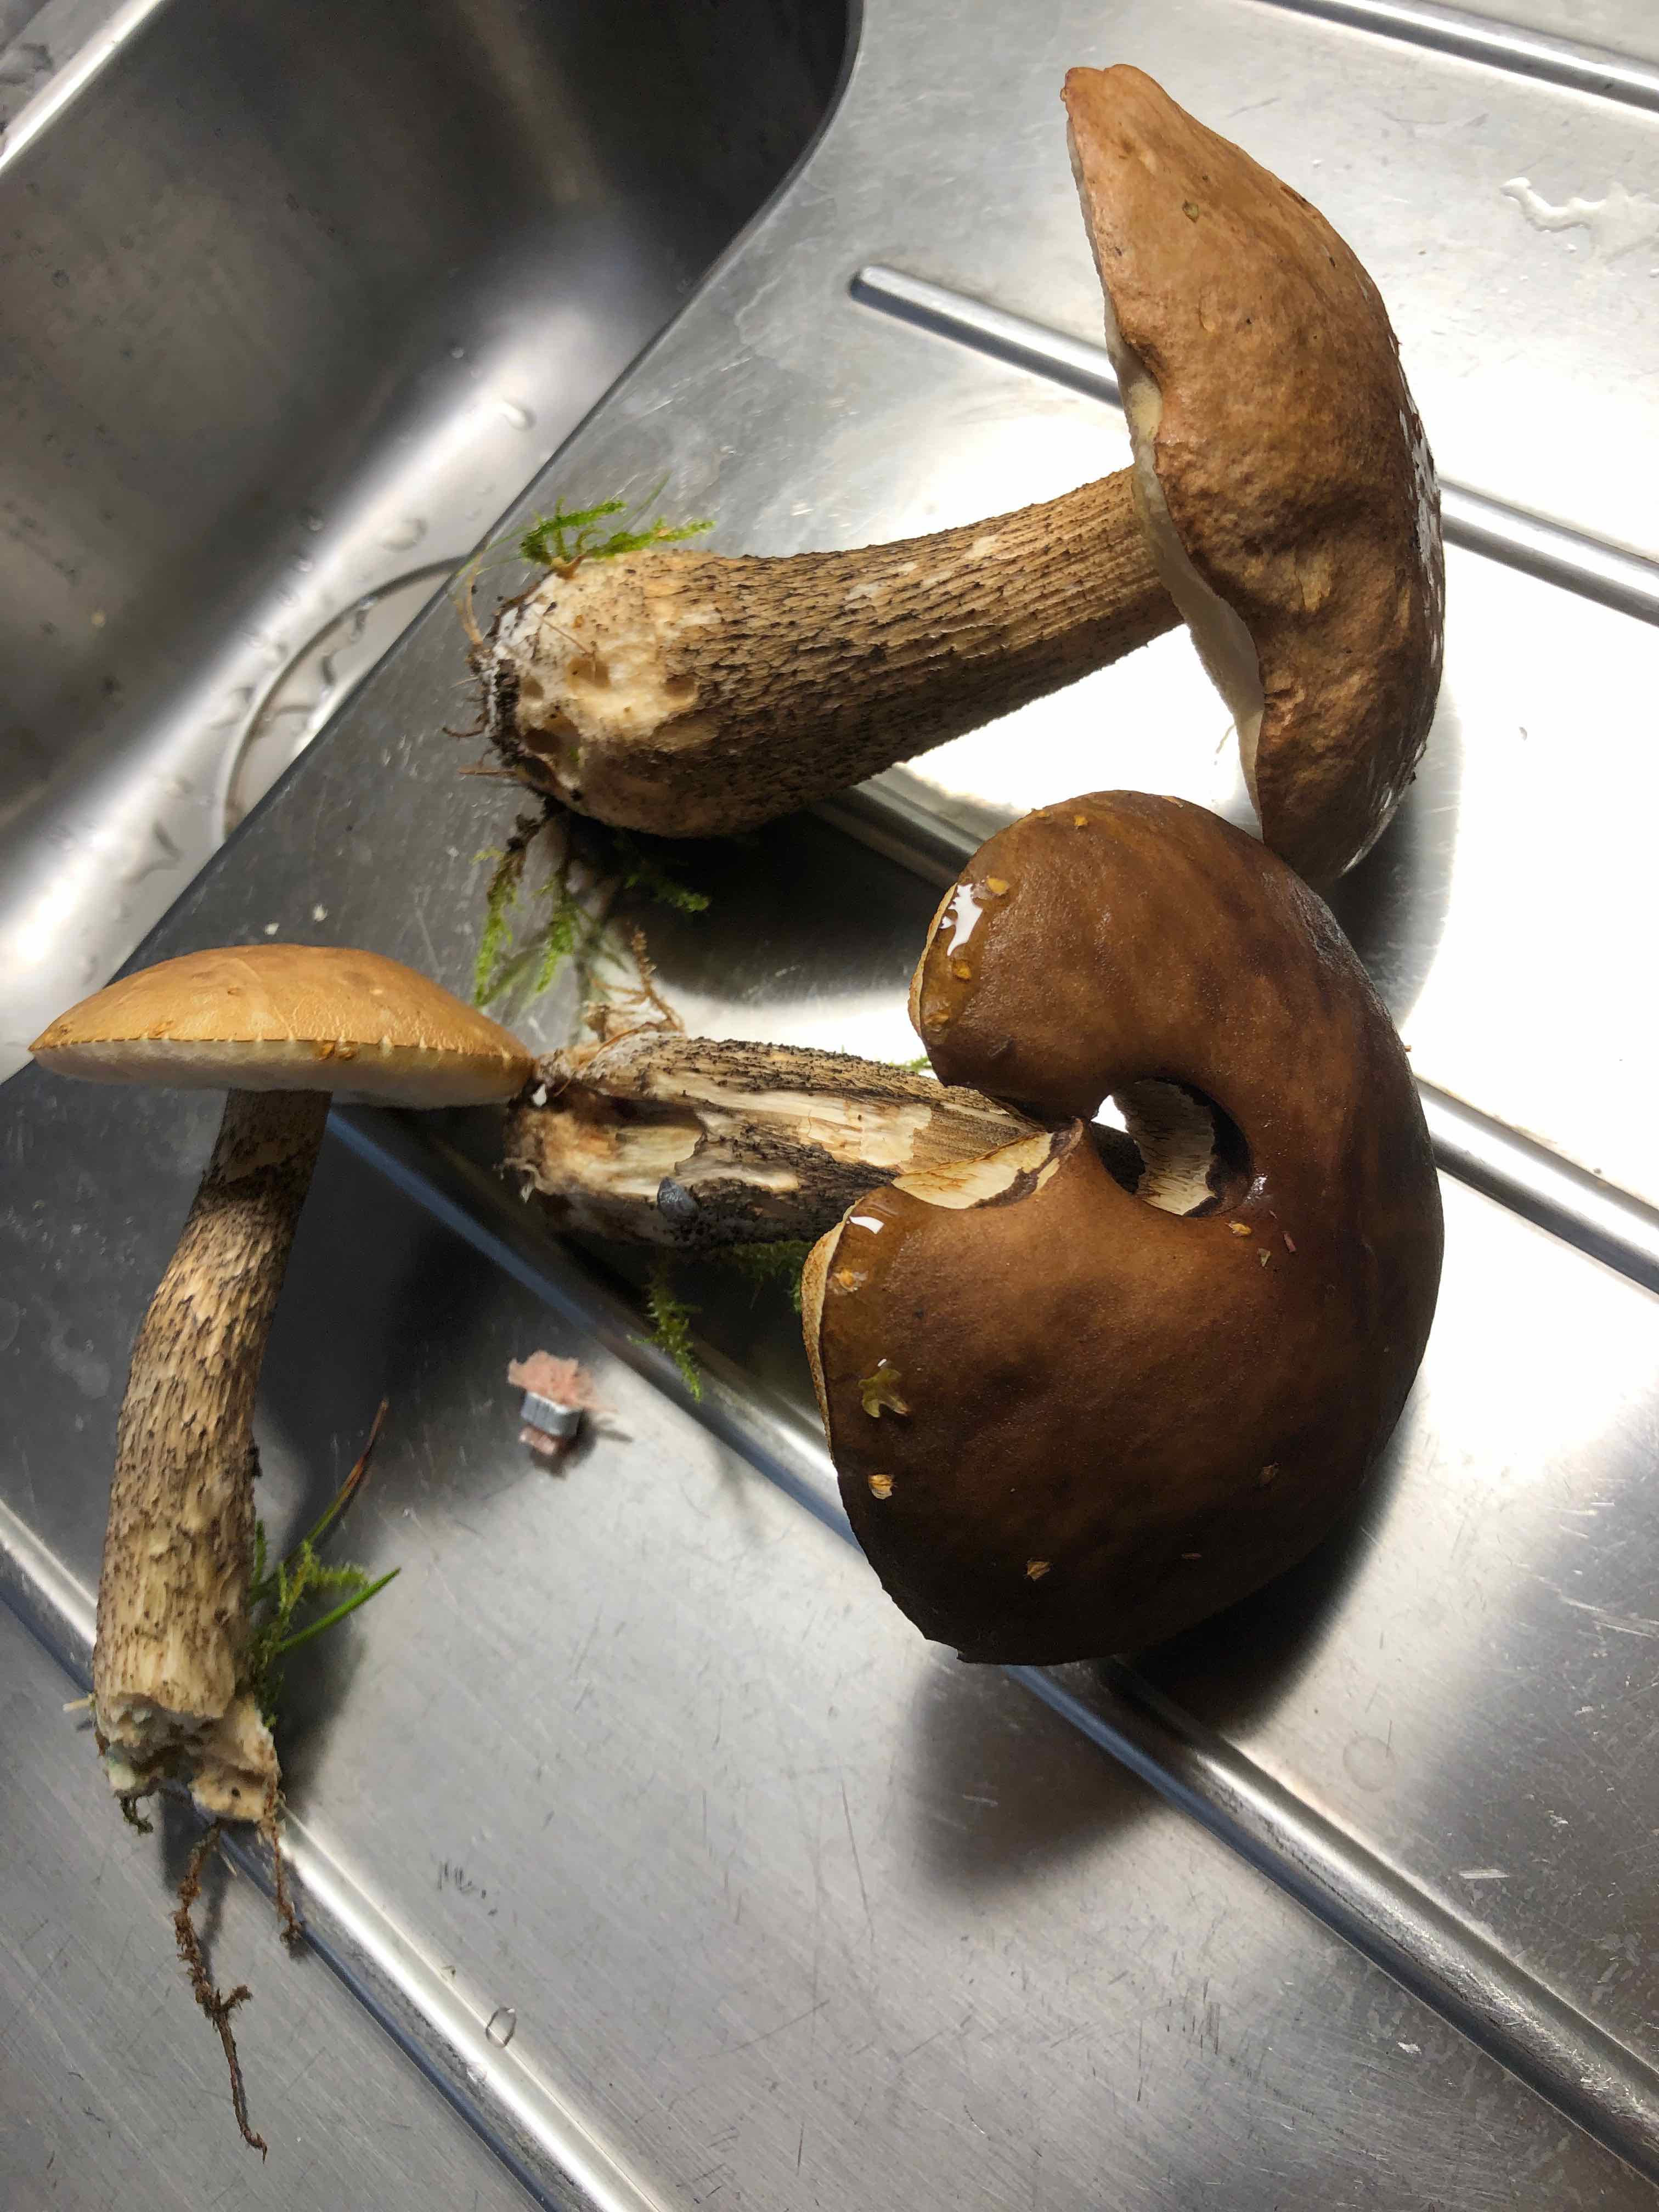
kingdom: Fungi
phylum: Basidiomycota
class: Agaricomycetes
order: Boletales
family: Boletaceae
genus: Leccinum
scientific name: Leccinum scabrum
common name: brun skælrørhat
